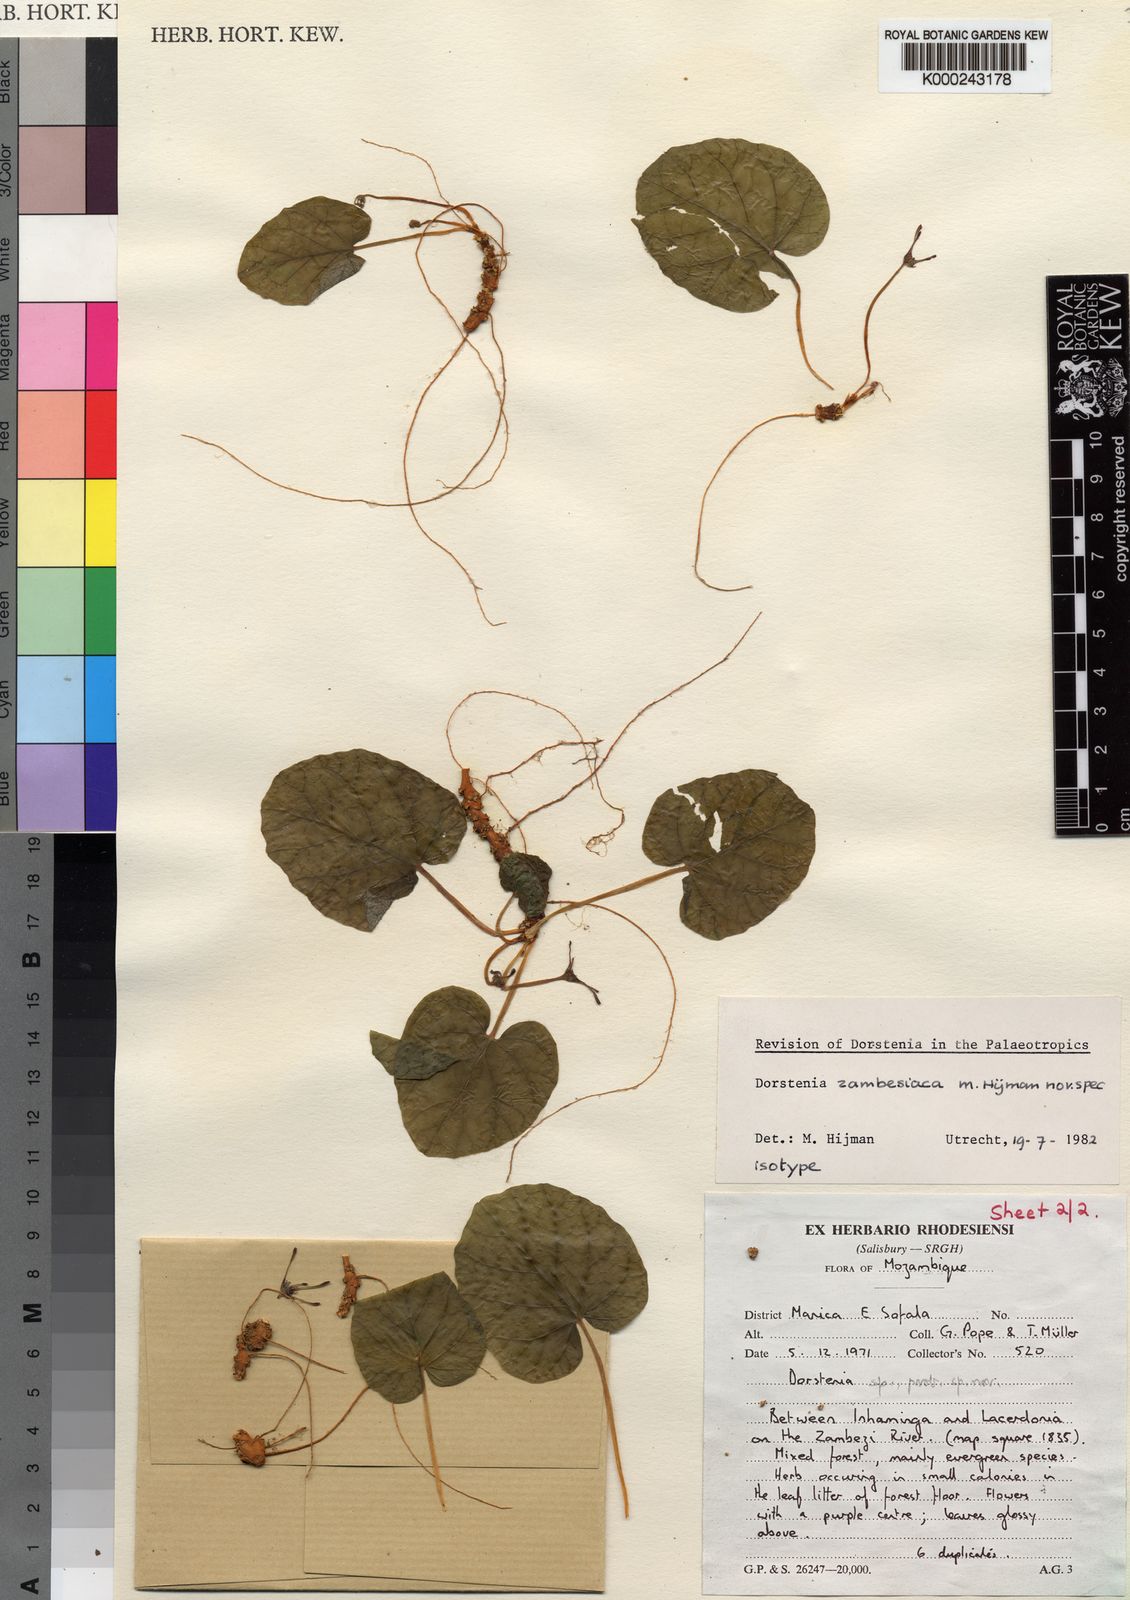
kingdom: Plantae
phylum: Tracheophyta
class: Magnoliopsida
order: Rosales
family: Moraceae
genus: Dorstenia
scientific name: Dorstenia zambesiaca
